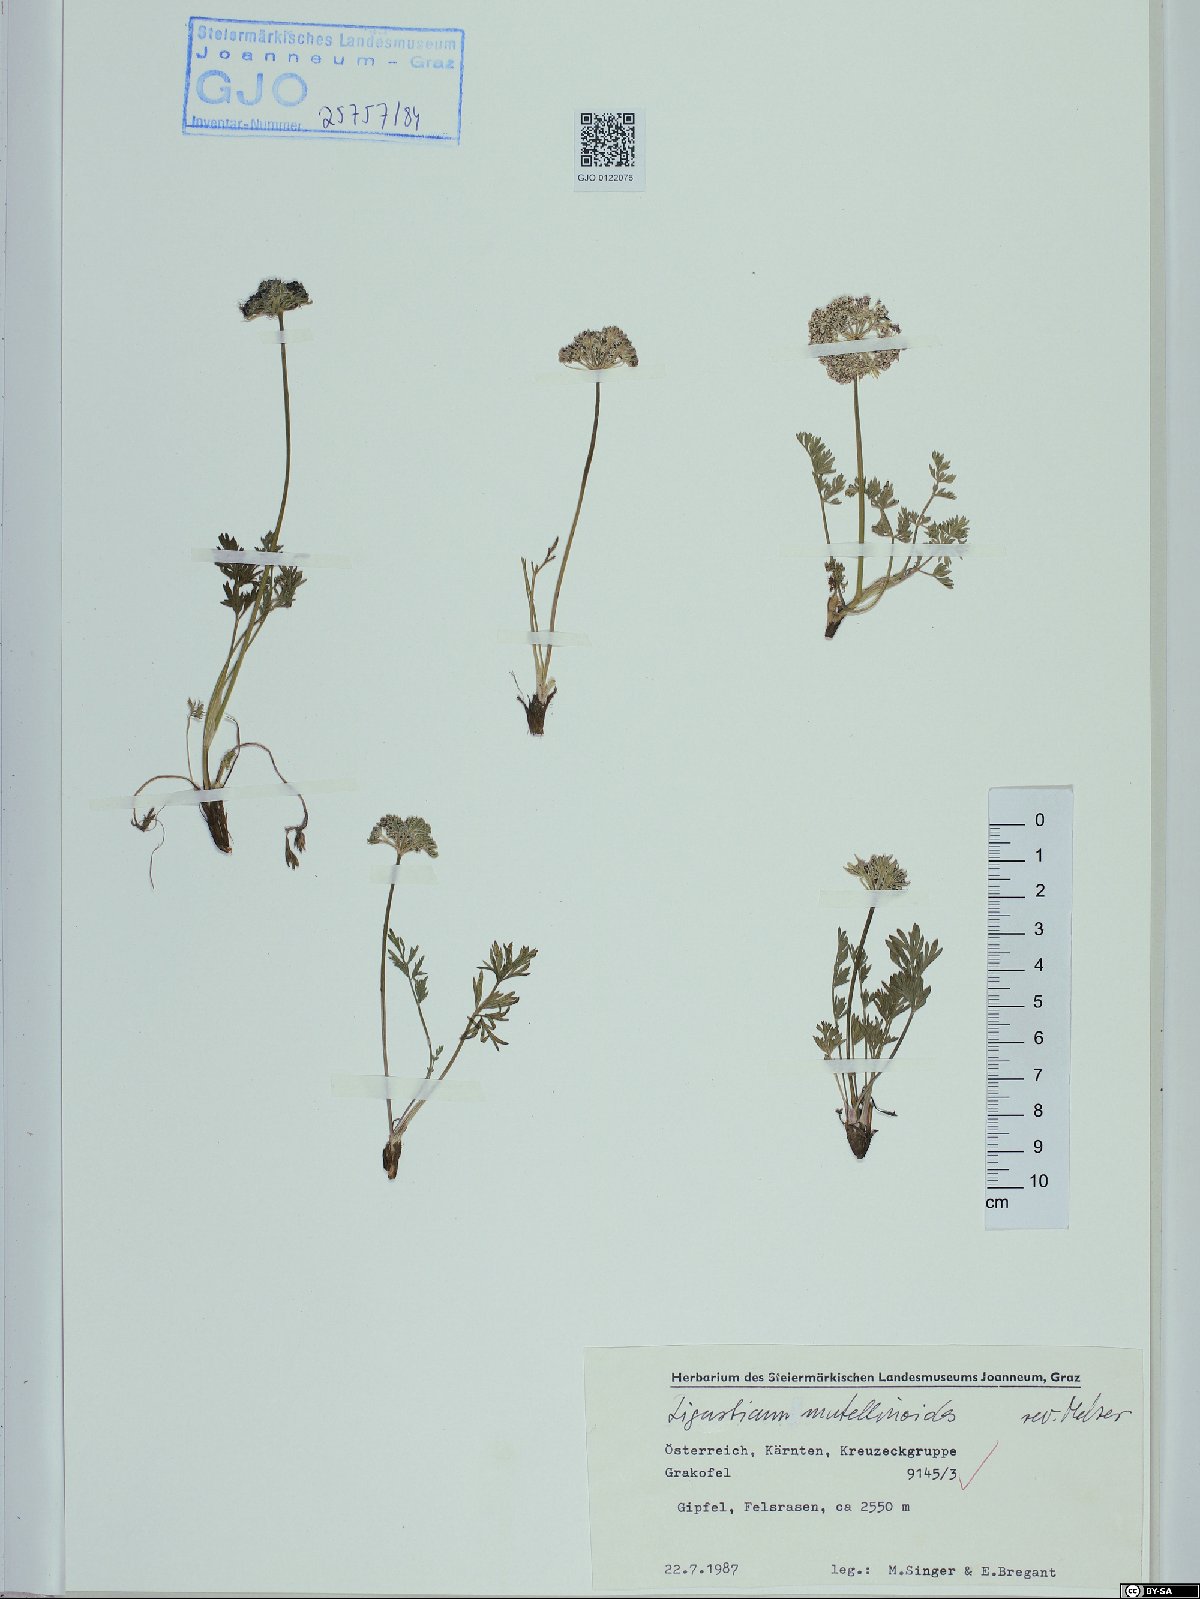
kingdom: Plantae
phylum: Tracheophyta
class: Magnoliopsida
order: Apiales
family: Apiaceae
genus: Pachypleurum
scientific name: Pachypleurum mutellinoides
